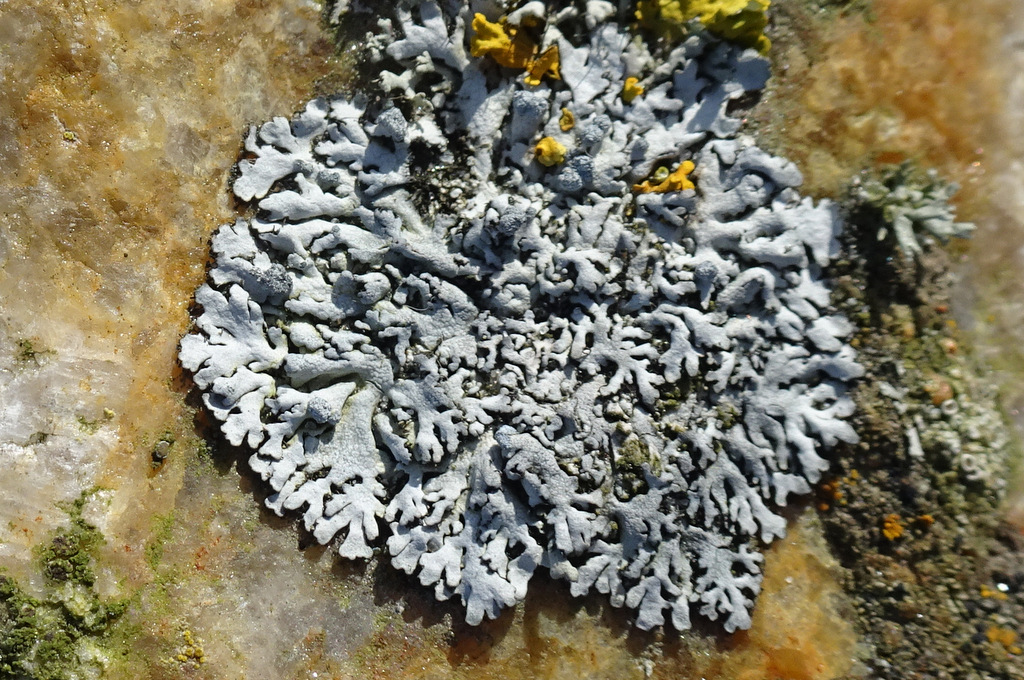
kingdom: Fungi
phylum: Ascomycota
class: Lecanoromycetes
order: Caliciales
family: Physciaceae
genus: Physcia
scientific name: Physcia caesia
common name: blågrå rosetlav
